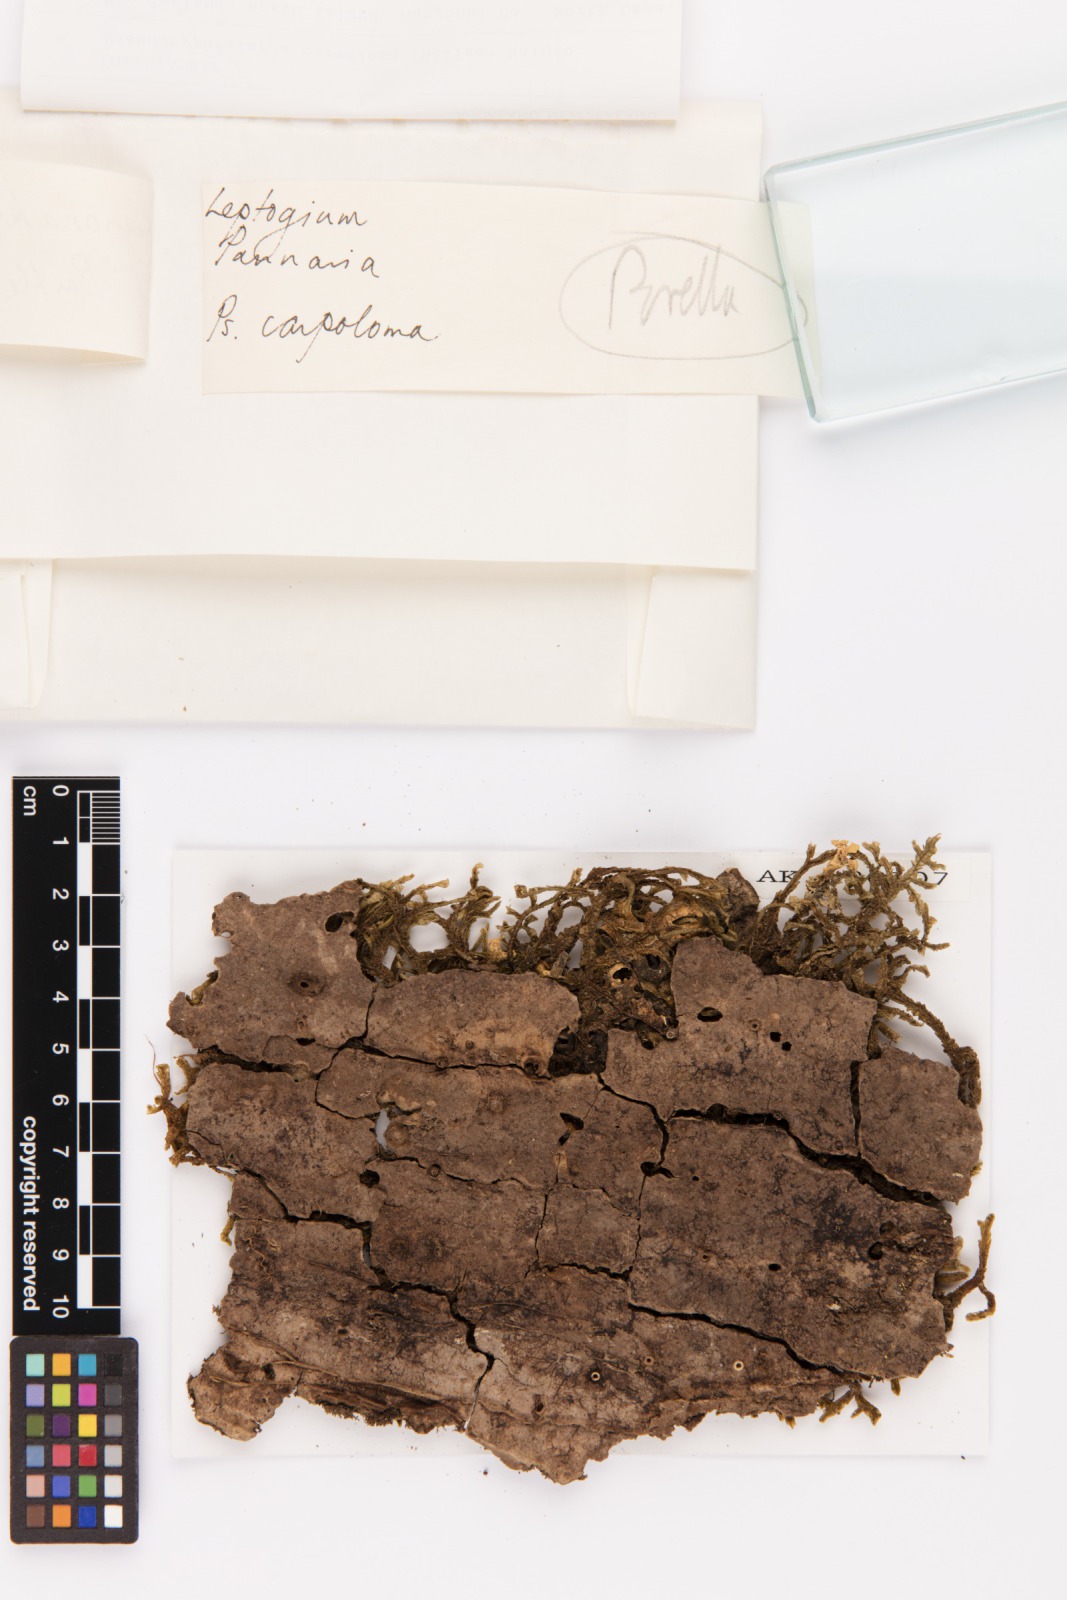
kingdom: Fungi
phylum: Ascomycota
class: Lecanoromycetes
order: Peltigerales
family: Lobariaceae
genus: Pseudocyphellaria
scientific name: Pseudocyphellaria carpoloma
